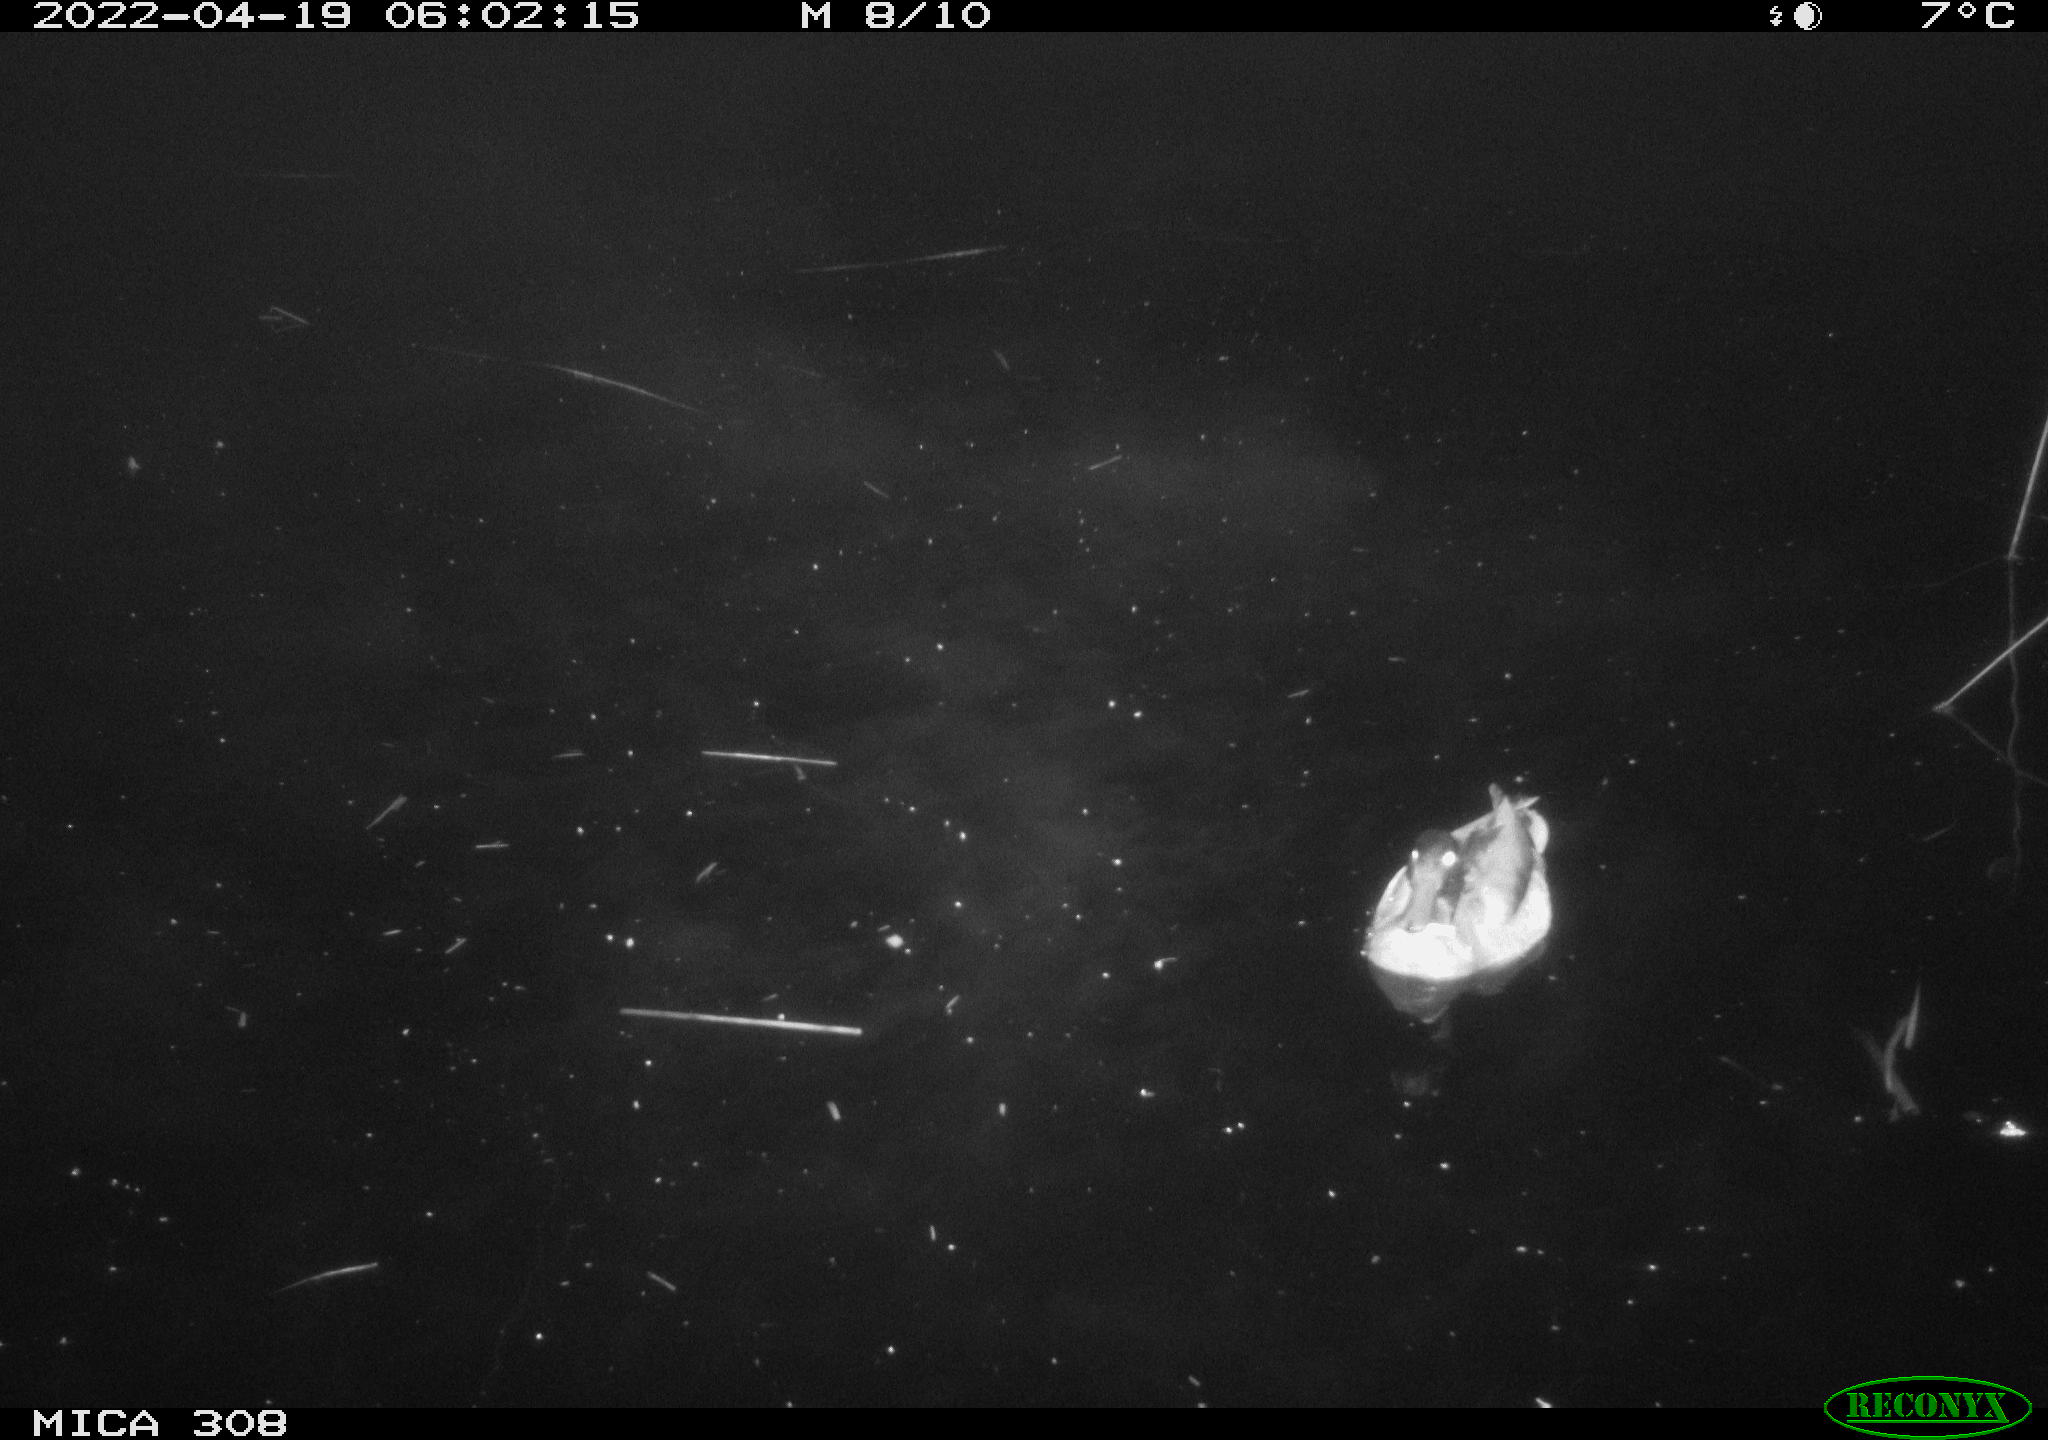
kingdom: Animalia
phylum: Chordata
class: Aves
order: Anseriformes
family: Anatidae
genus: Anas
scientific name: Anas platyrhynchos
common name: Mallard
